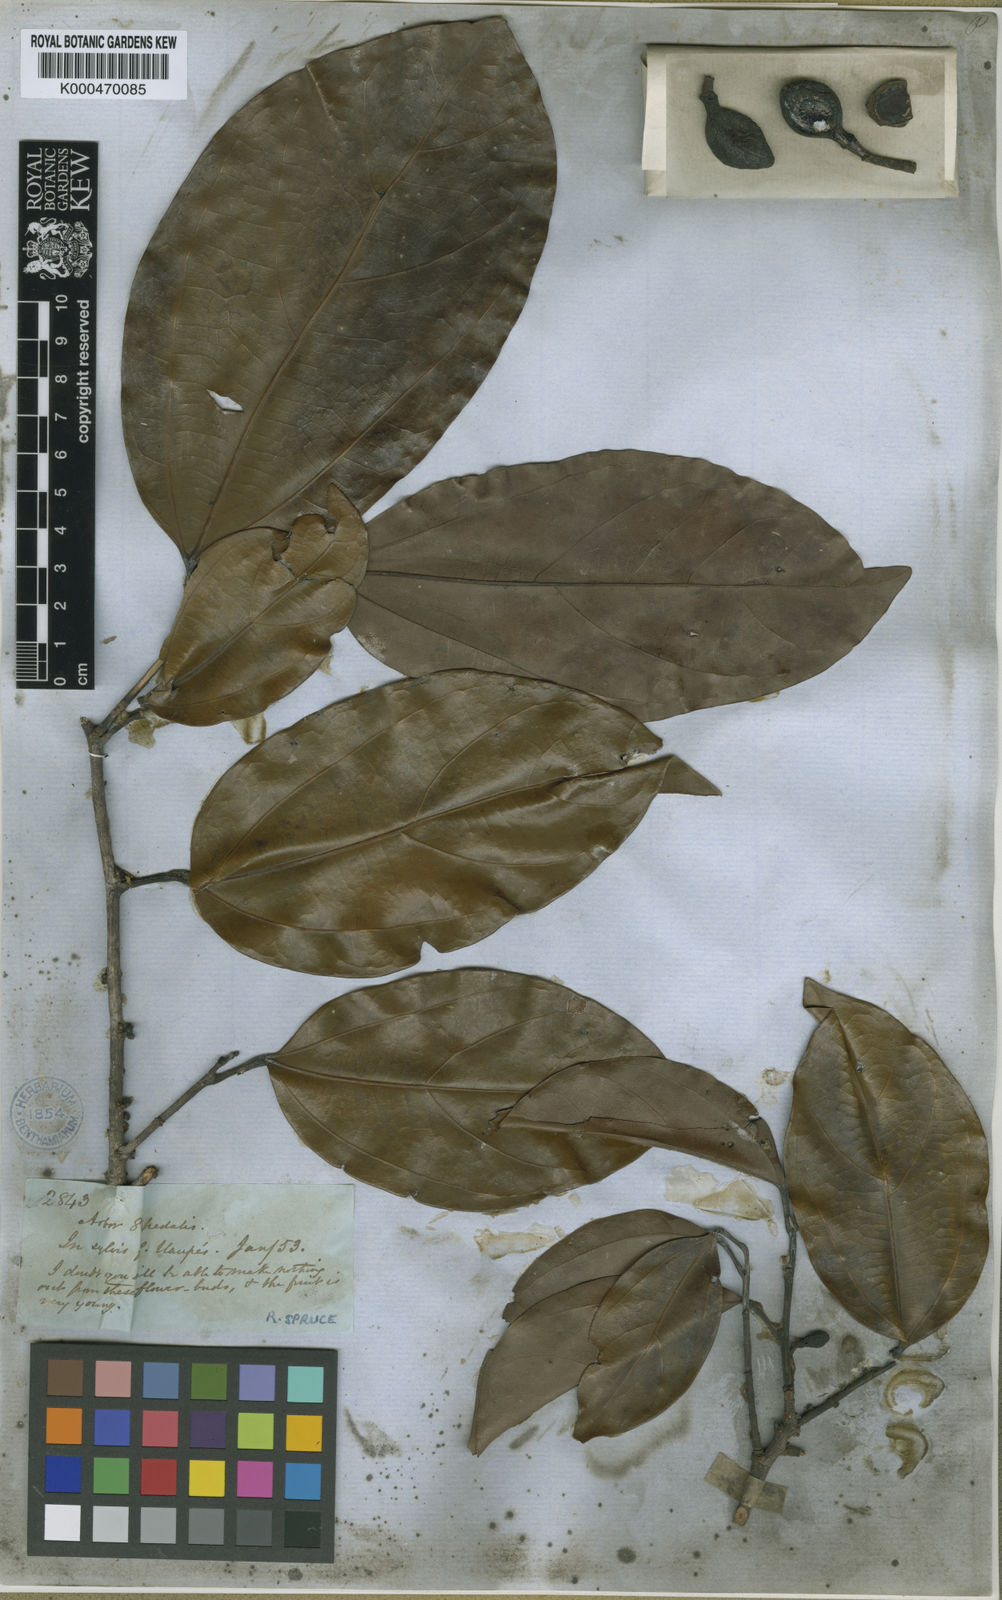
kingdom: Plantae
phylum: Tracheophyta
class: Magnoliopsida
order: Saxifragales
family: Peridiscaceae
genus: Peridiscus
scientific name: Peridiscus lucidus
